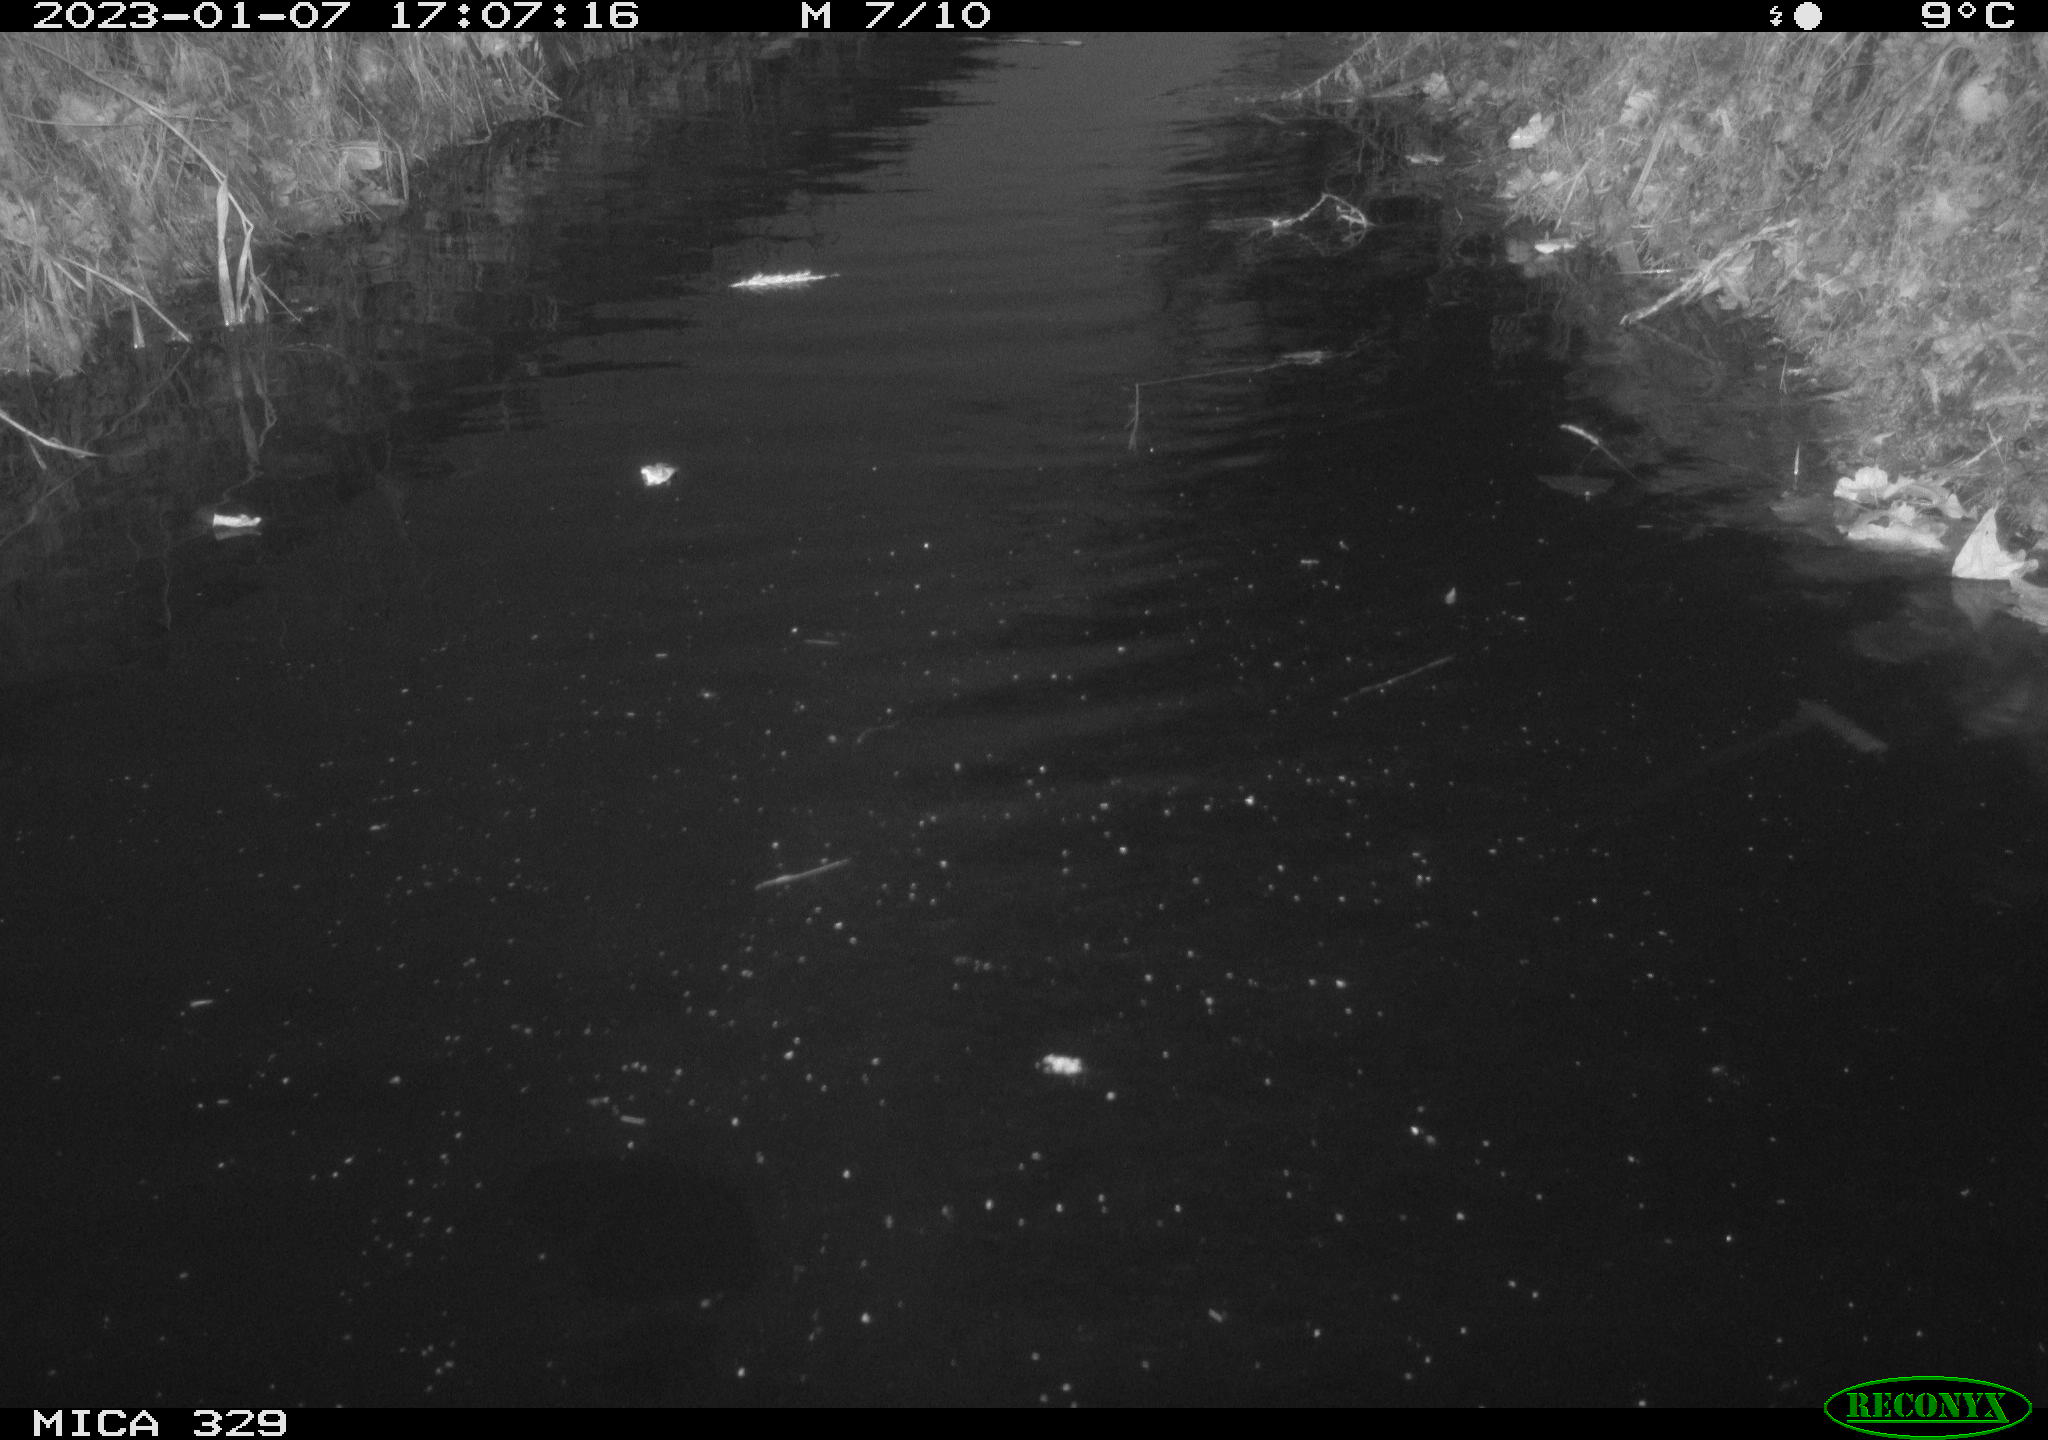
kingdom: Animalia
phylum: Chordata
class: Mammalia
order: Rodentia
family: Cricetidae
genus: Ondatra
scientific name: Ondatra zibethicus
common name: Muskrat
